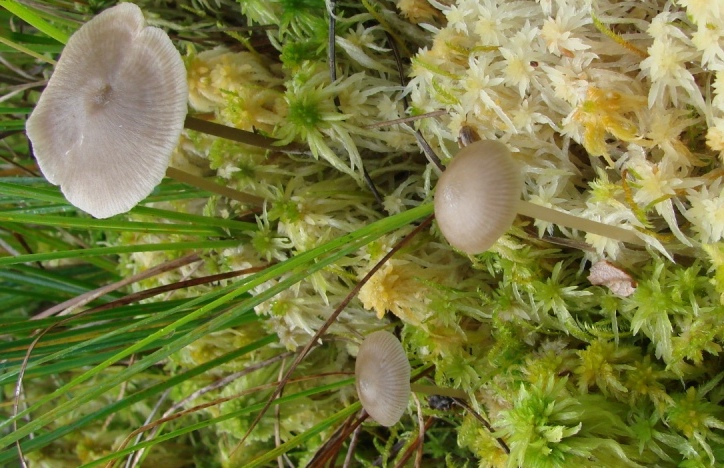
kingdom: Fungi
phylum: Basidiomycota
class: Agaricomycetes
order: Agaricales
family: Lyophyllaceae
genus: Sphagnurus
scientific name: Sphagnurus paluster
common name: tørvemos-gråblad
